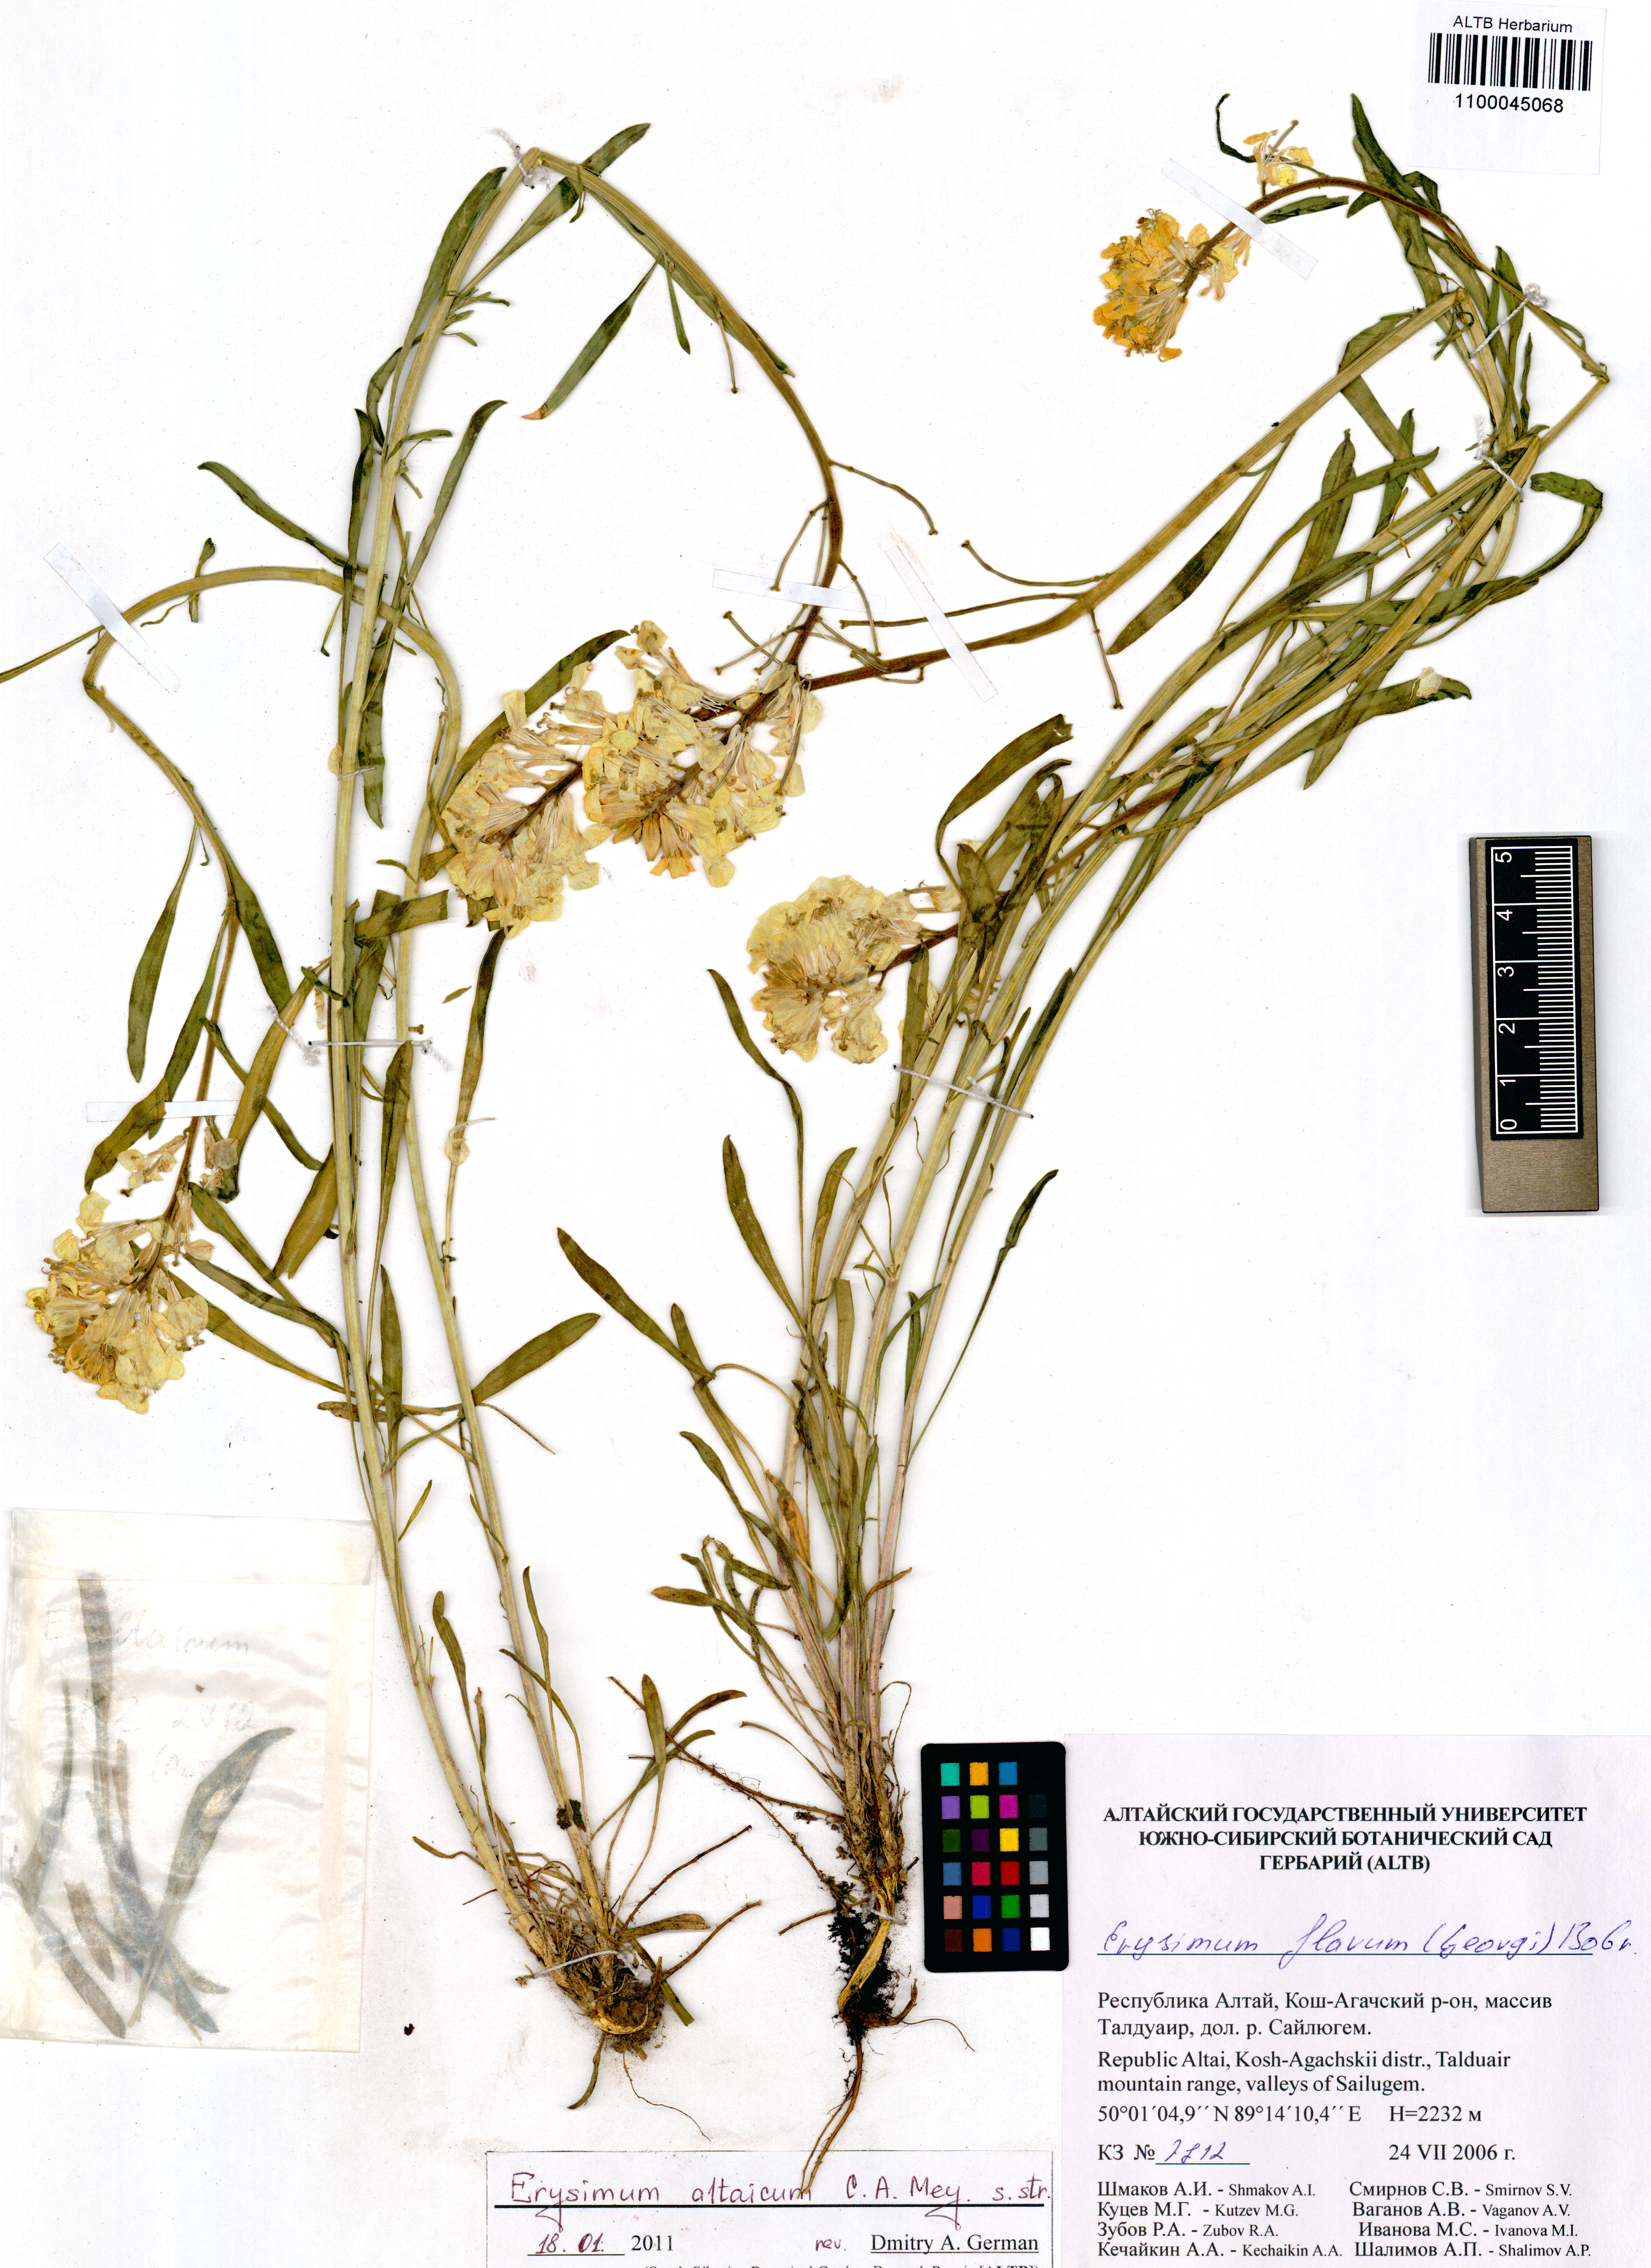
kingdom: Plantae
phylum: Tracheophyta
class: Magnoliopsida
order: Brassicales
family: Brassicaceae
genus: Erysimum
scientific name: Erysimum altaicum
